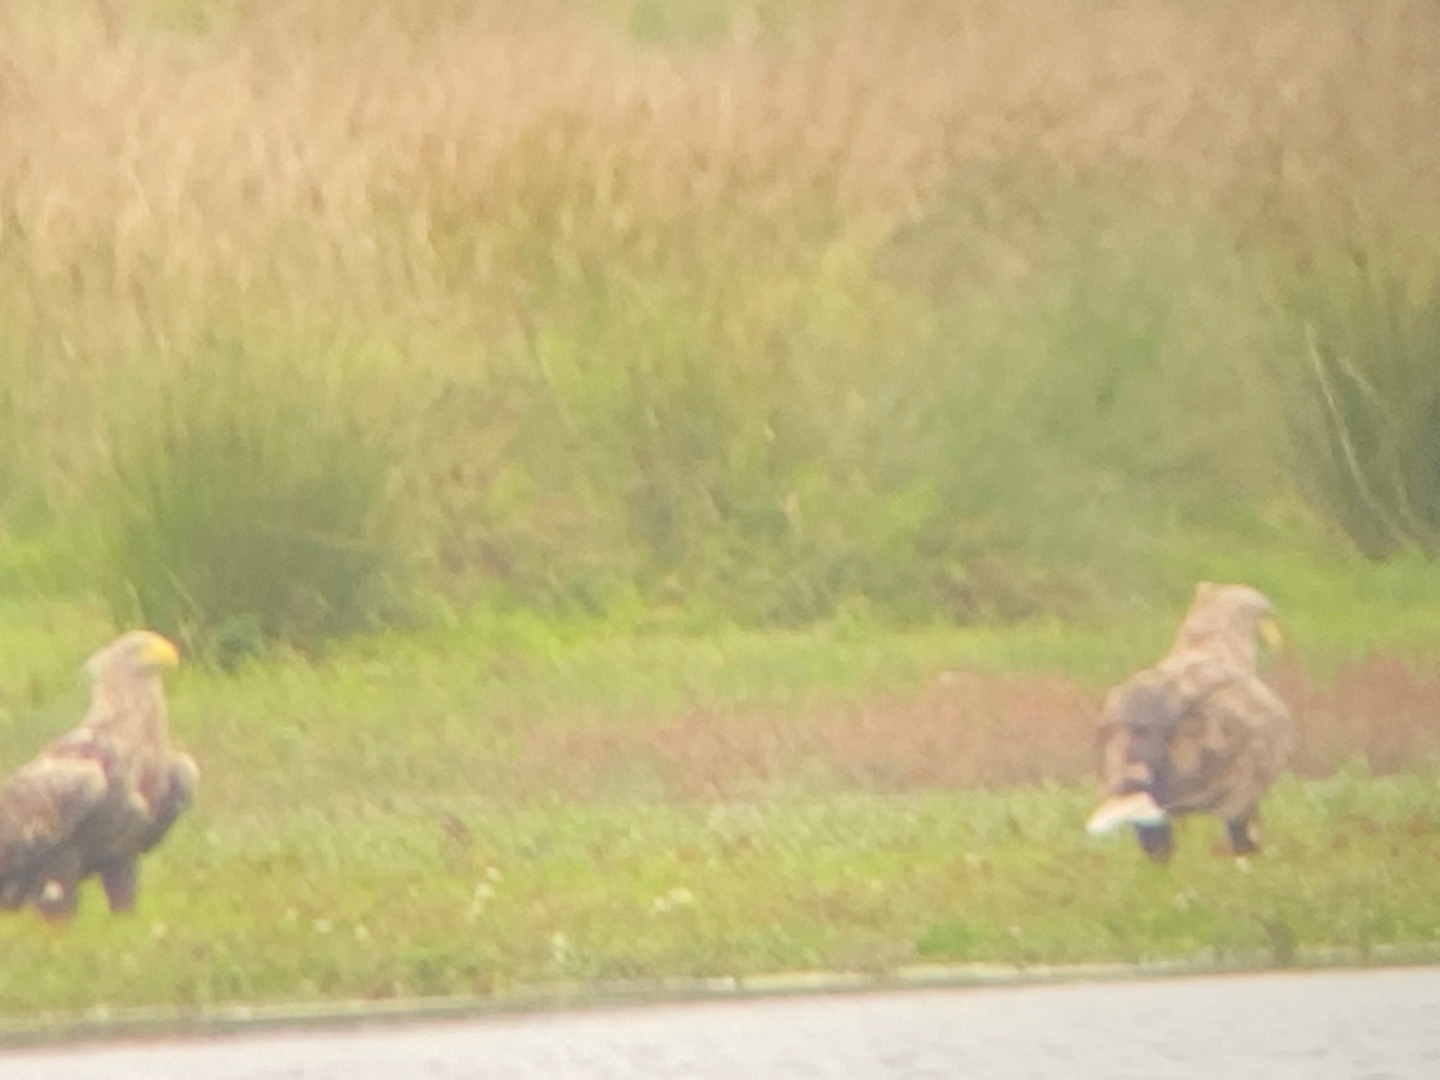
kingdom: Animalia
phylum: Chordata
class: Aves
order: Accipitriformes
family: Accipitridae
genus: Haliaeetus
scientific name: Haliaeetus albicilla
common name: Havørn
